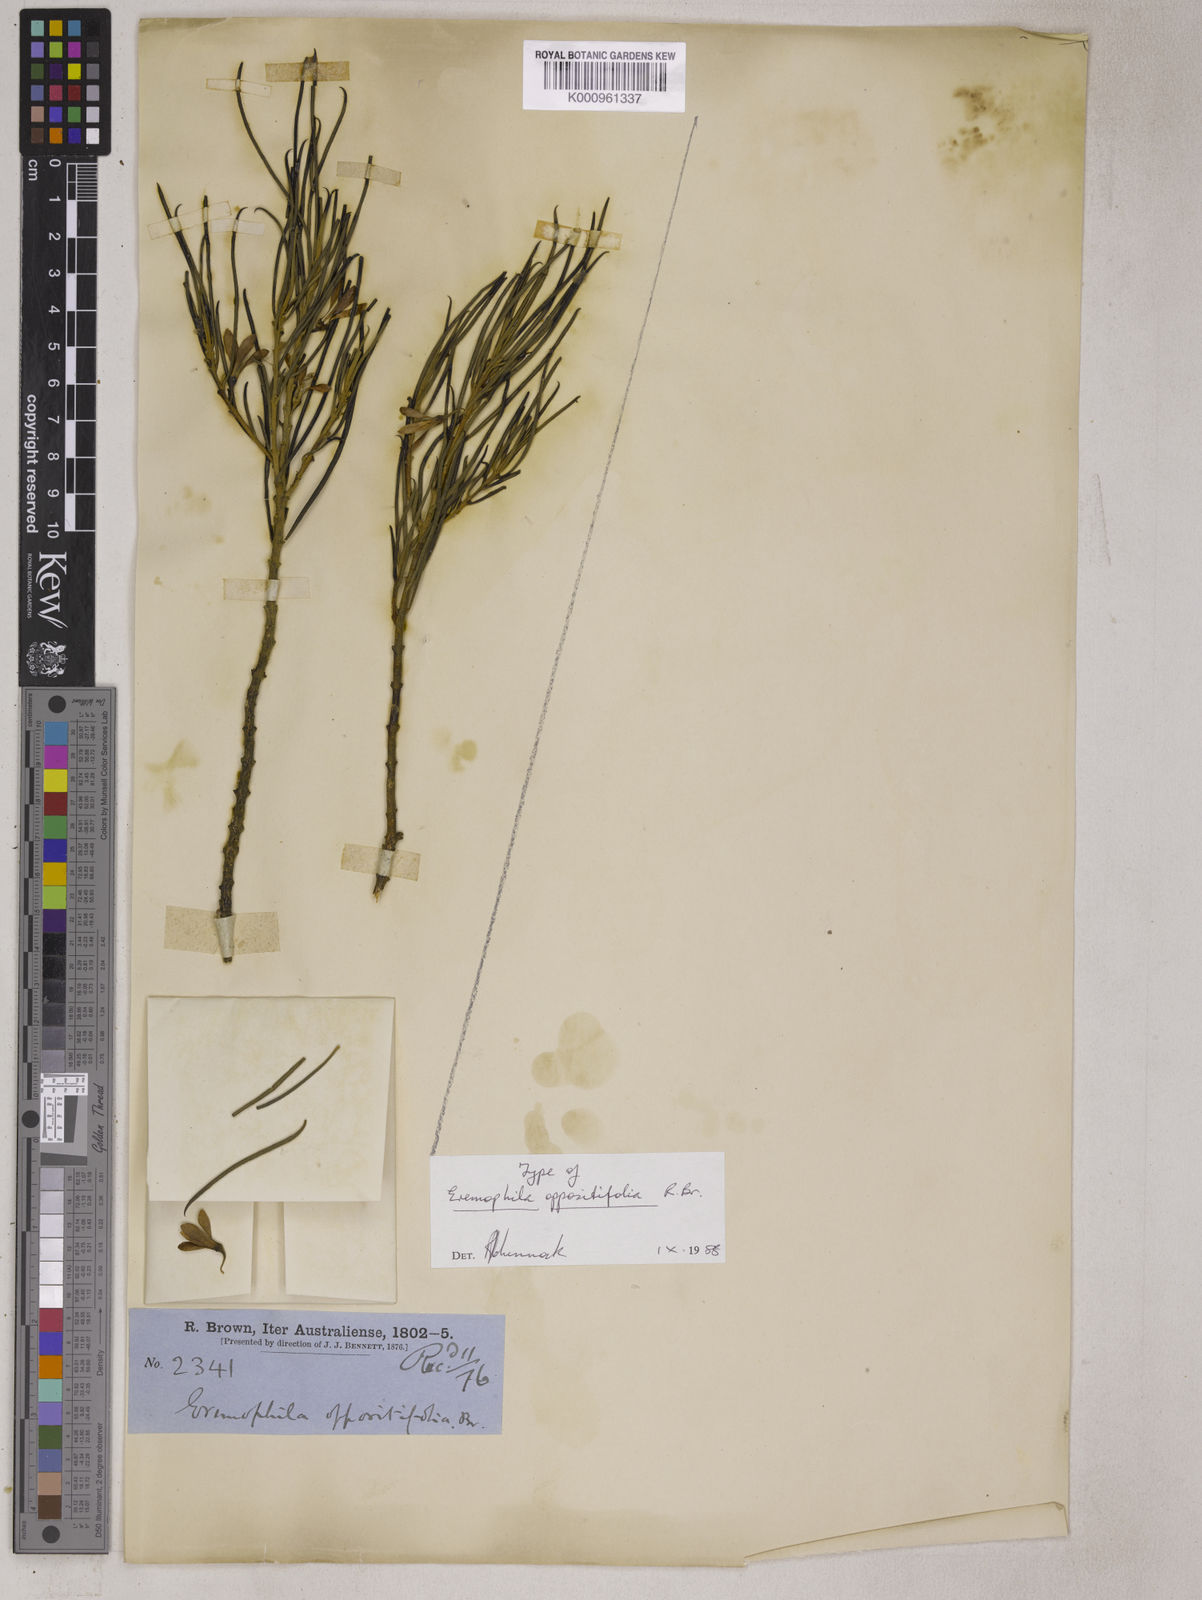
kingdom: Plantae
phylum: Tracheophyta
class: Magnoliopsida
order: Lamiales
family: Scrophulariaceae
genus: Eremophila
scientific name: Eremophila oppositifolia
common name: Mountain-sandalwood
